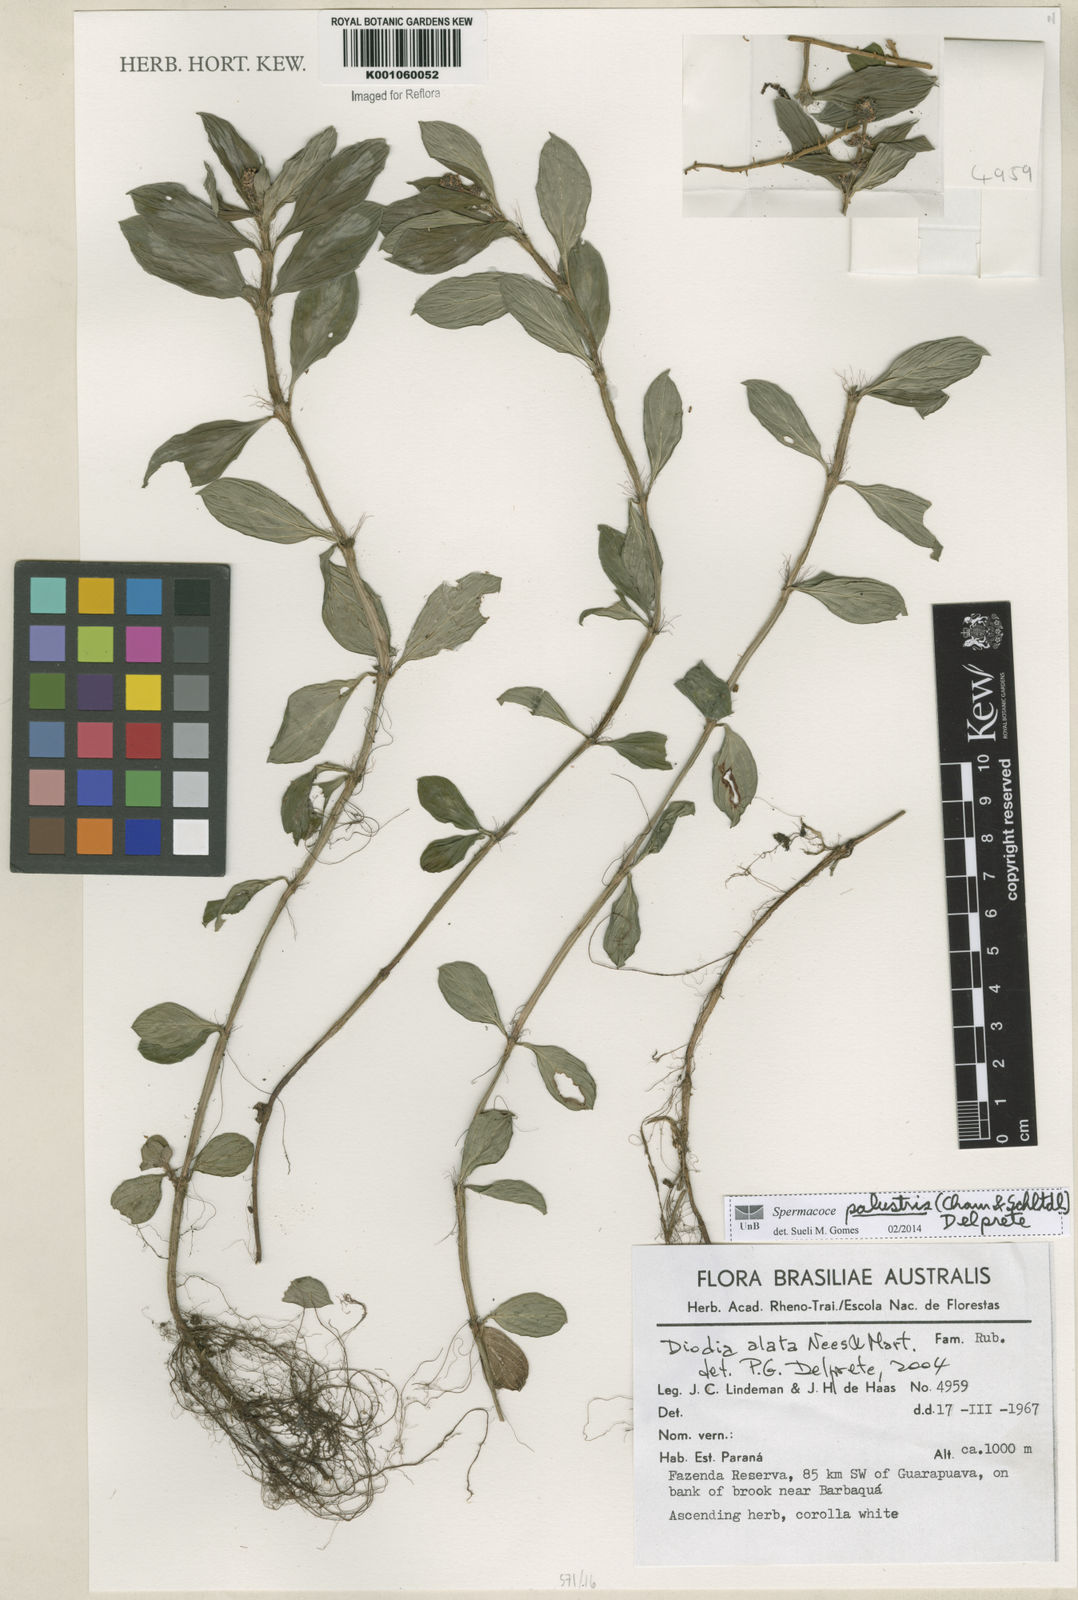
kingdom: Plantae
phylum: Tracheophyta
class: Magnoliopsida
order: Gentianales
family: Rubiaceae
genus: Galianthe
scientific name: Galianthe palustris
